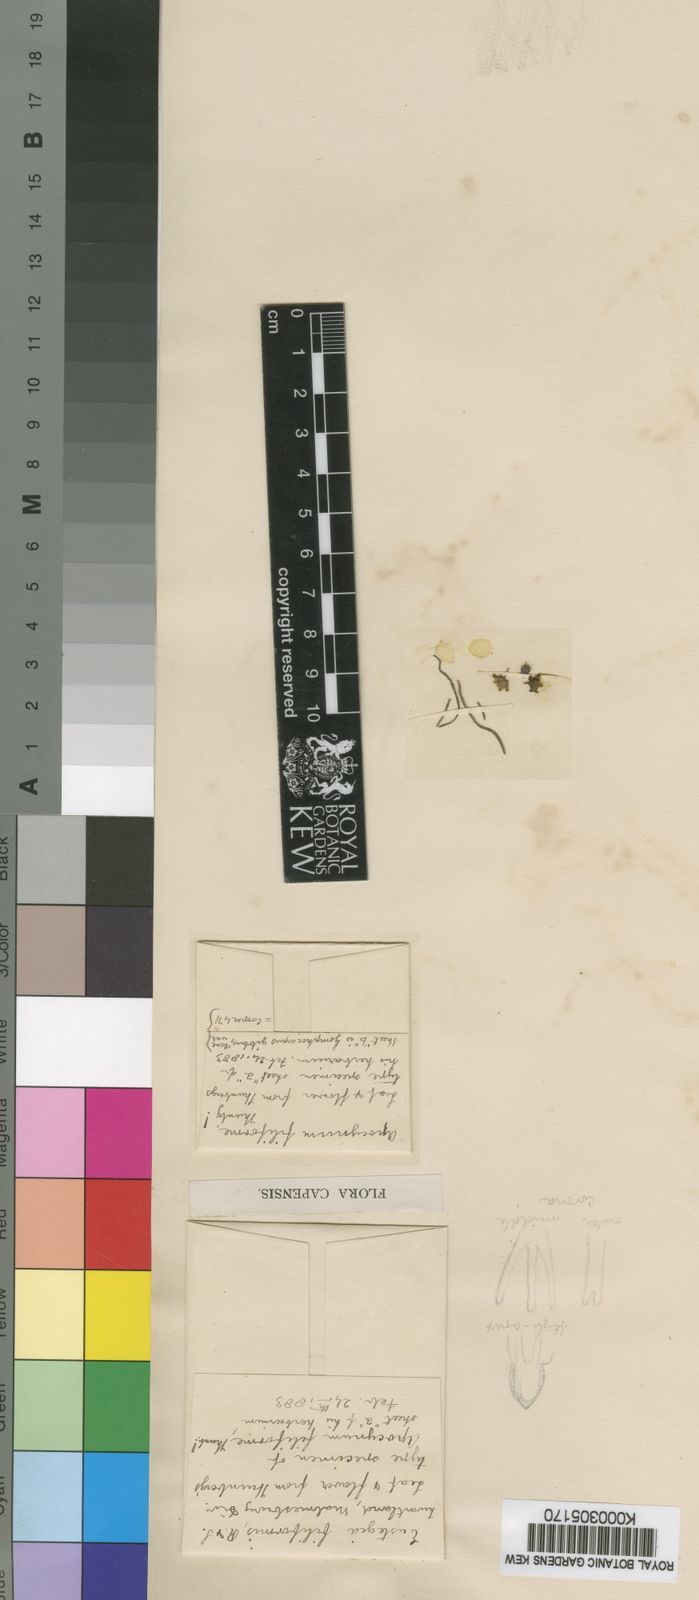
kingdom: Plantae
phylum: Tracheophyta
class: Magnoliopsida
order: Gentianales
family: Apocynaceae
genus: Eustegia
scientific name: Eustegia filiformis
